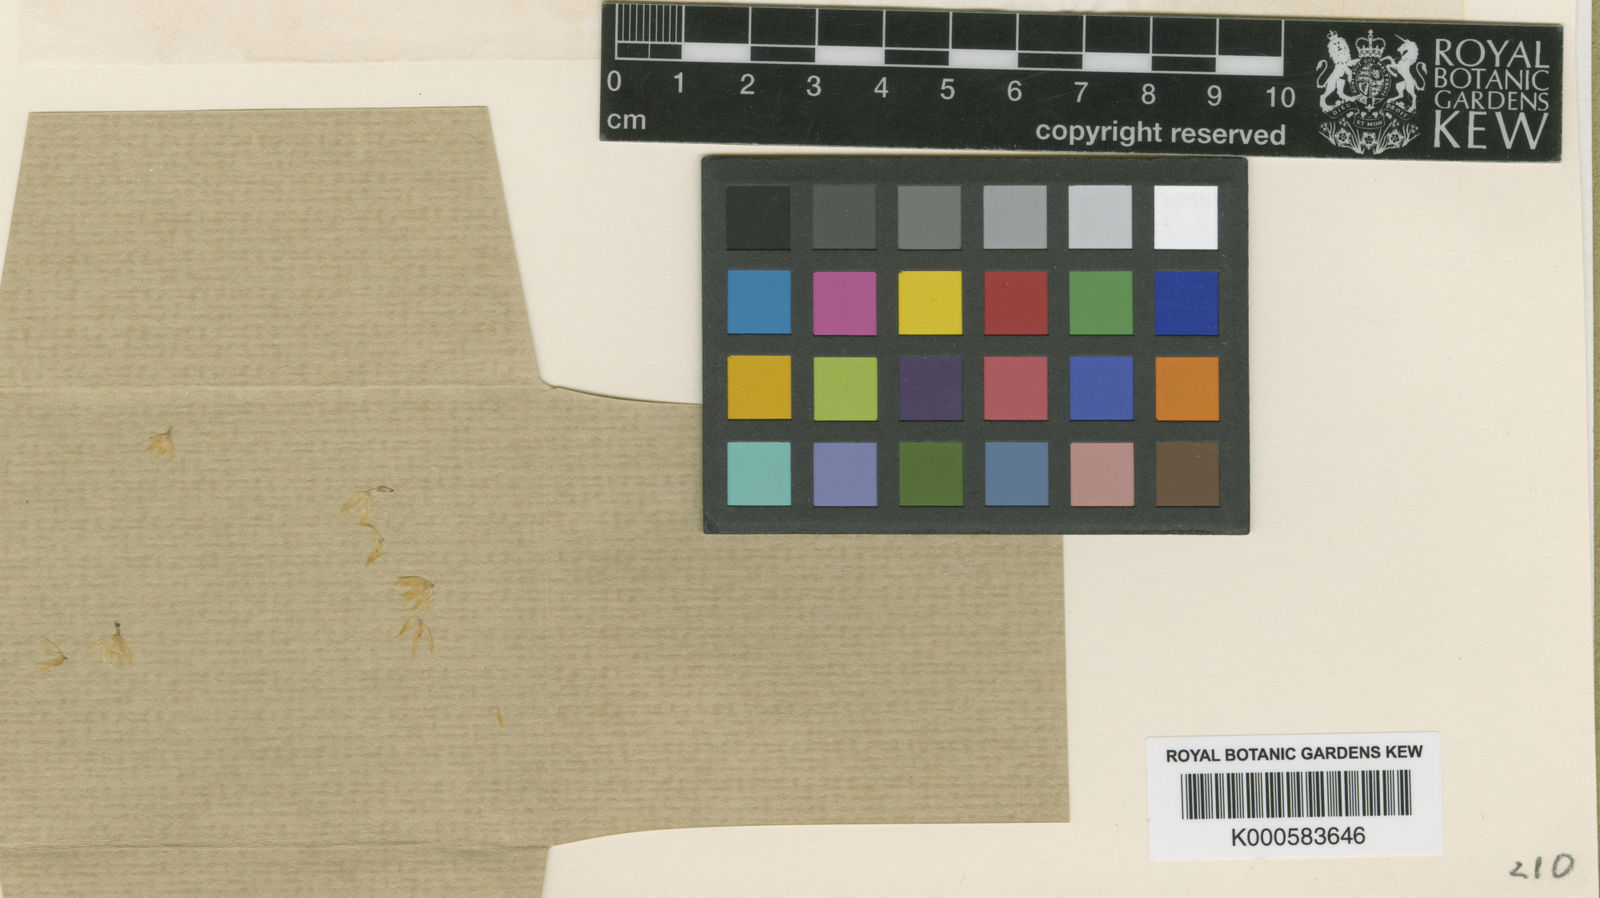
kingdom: Plantae
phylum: Tracheophyta
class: Liliopsida
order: Asparagales
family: Orchidaceae
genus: Octomeria
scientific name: Octomeria exigua
